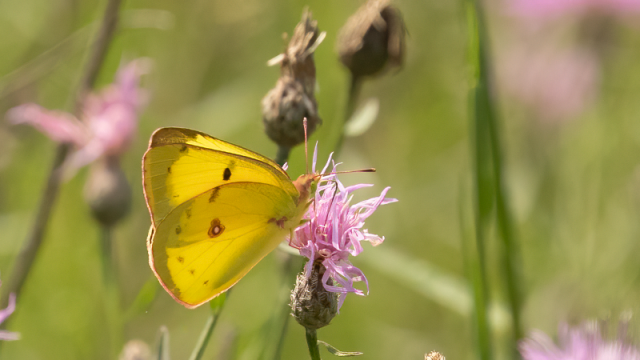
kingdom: Animalia
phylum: Arthropoda
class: Insecta
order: Lepidoptera
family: Pieridae
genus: Colias
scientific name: Colias philodice
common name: Clouded Sulphur
